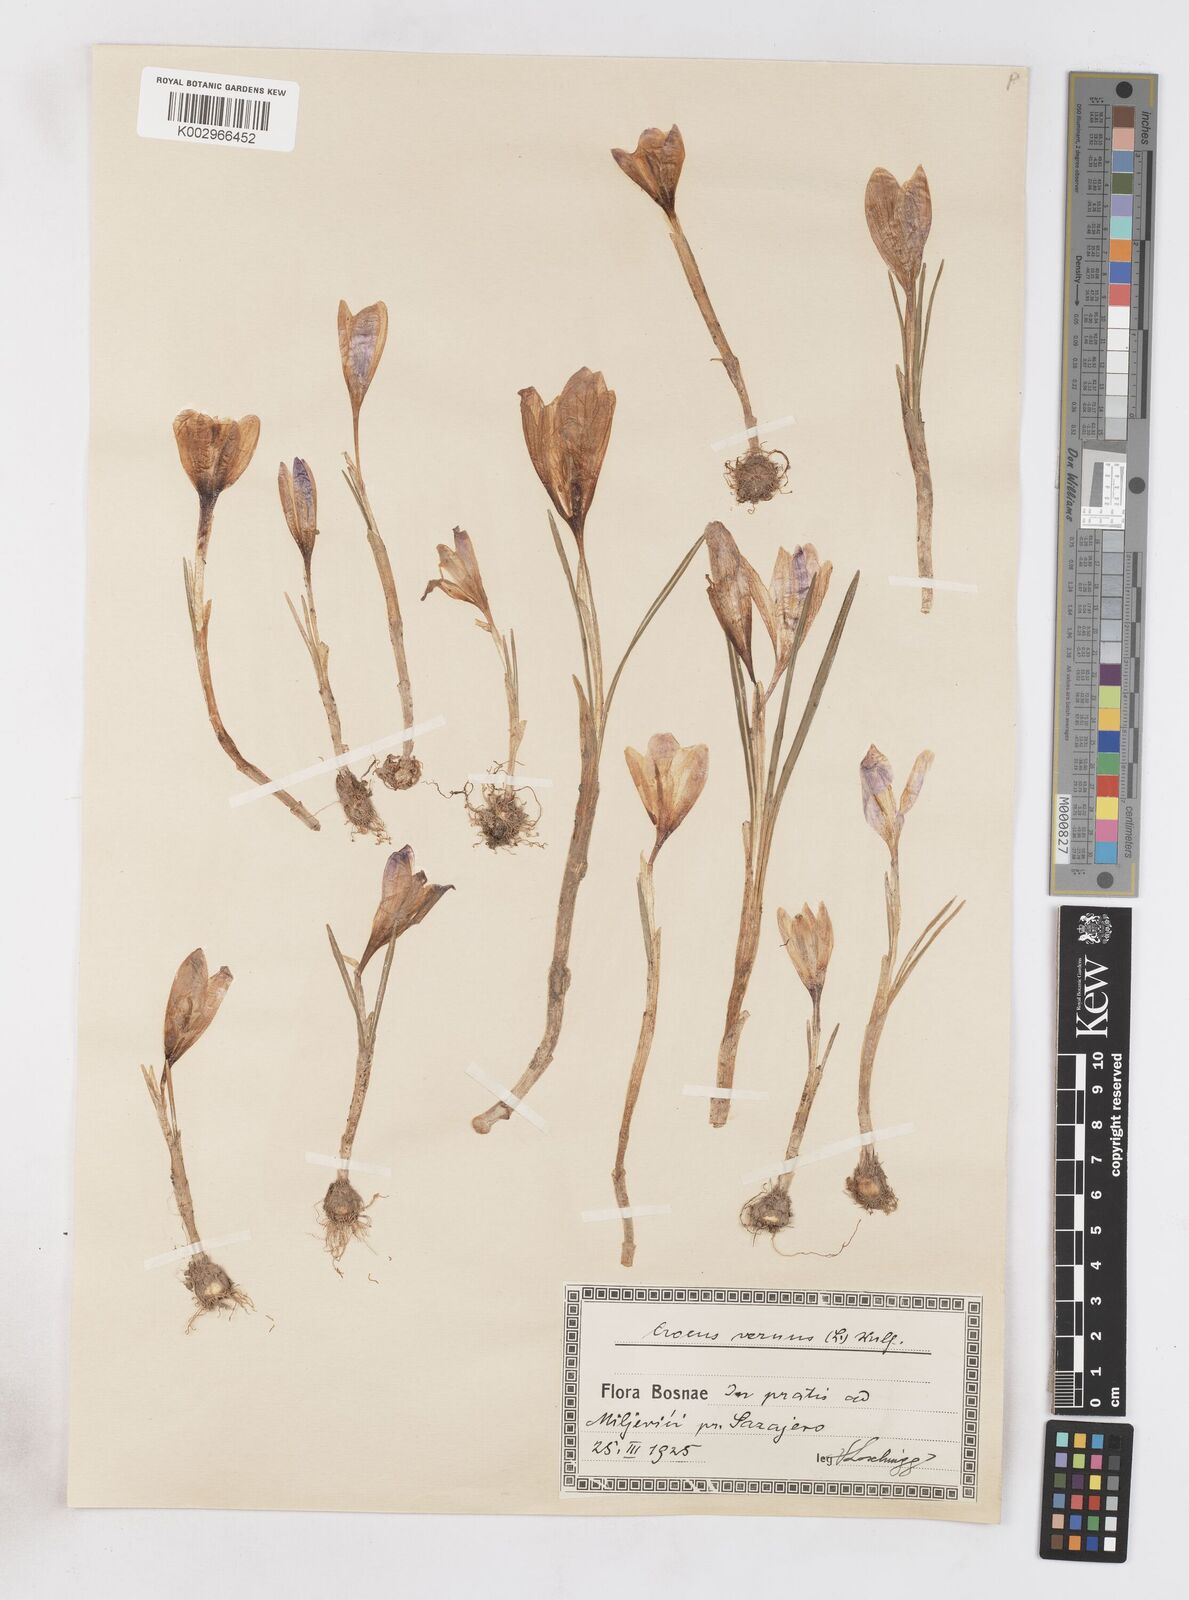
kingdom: Plantae
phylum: Tracheophyta
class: Liliopsida
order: Asparagales
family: Iridaceae
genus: Crocus
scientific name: Crocus vernus
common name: Spring crocus
